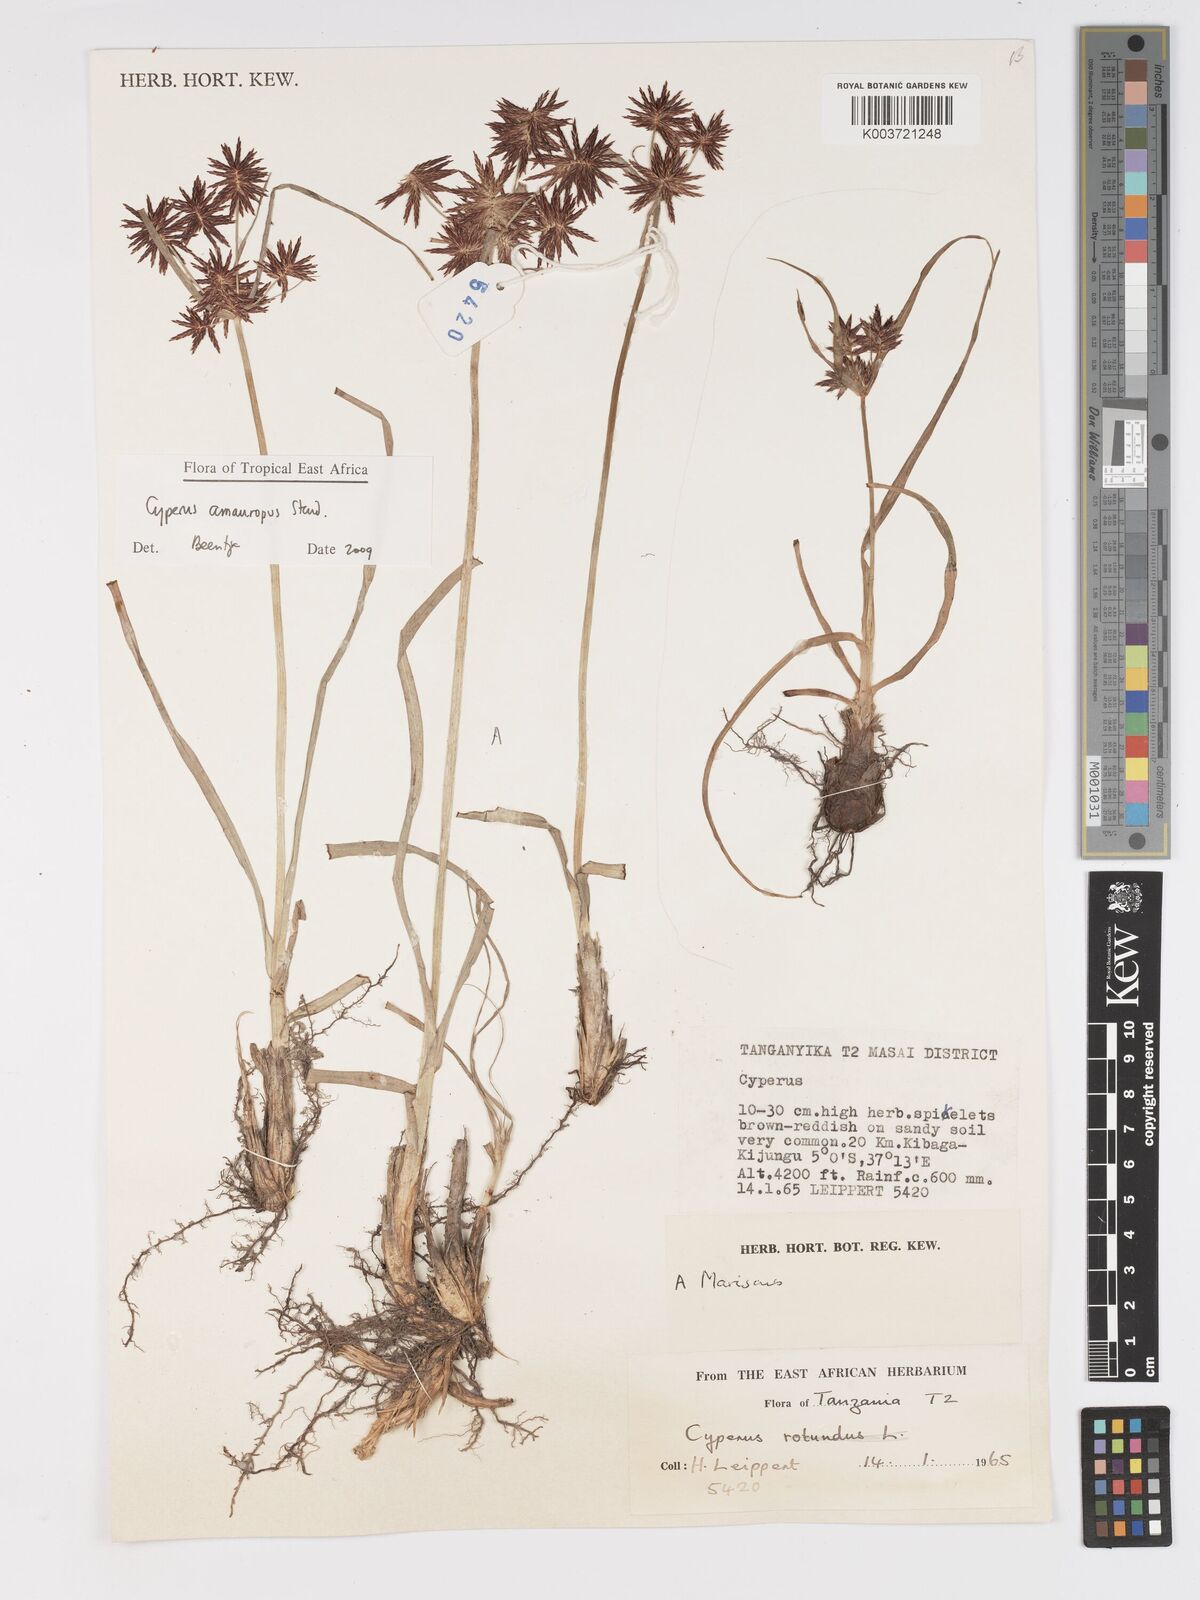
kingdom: Plantae
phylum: Tracheophyta
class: Liliopsida
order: Poales
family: Cyperaceae
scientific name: Cyperaceae
